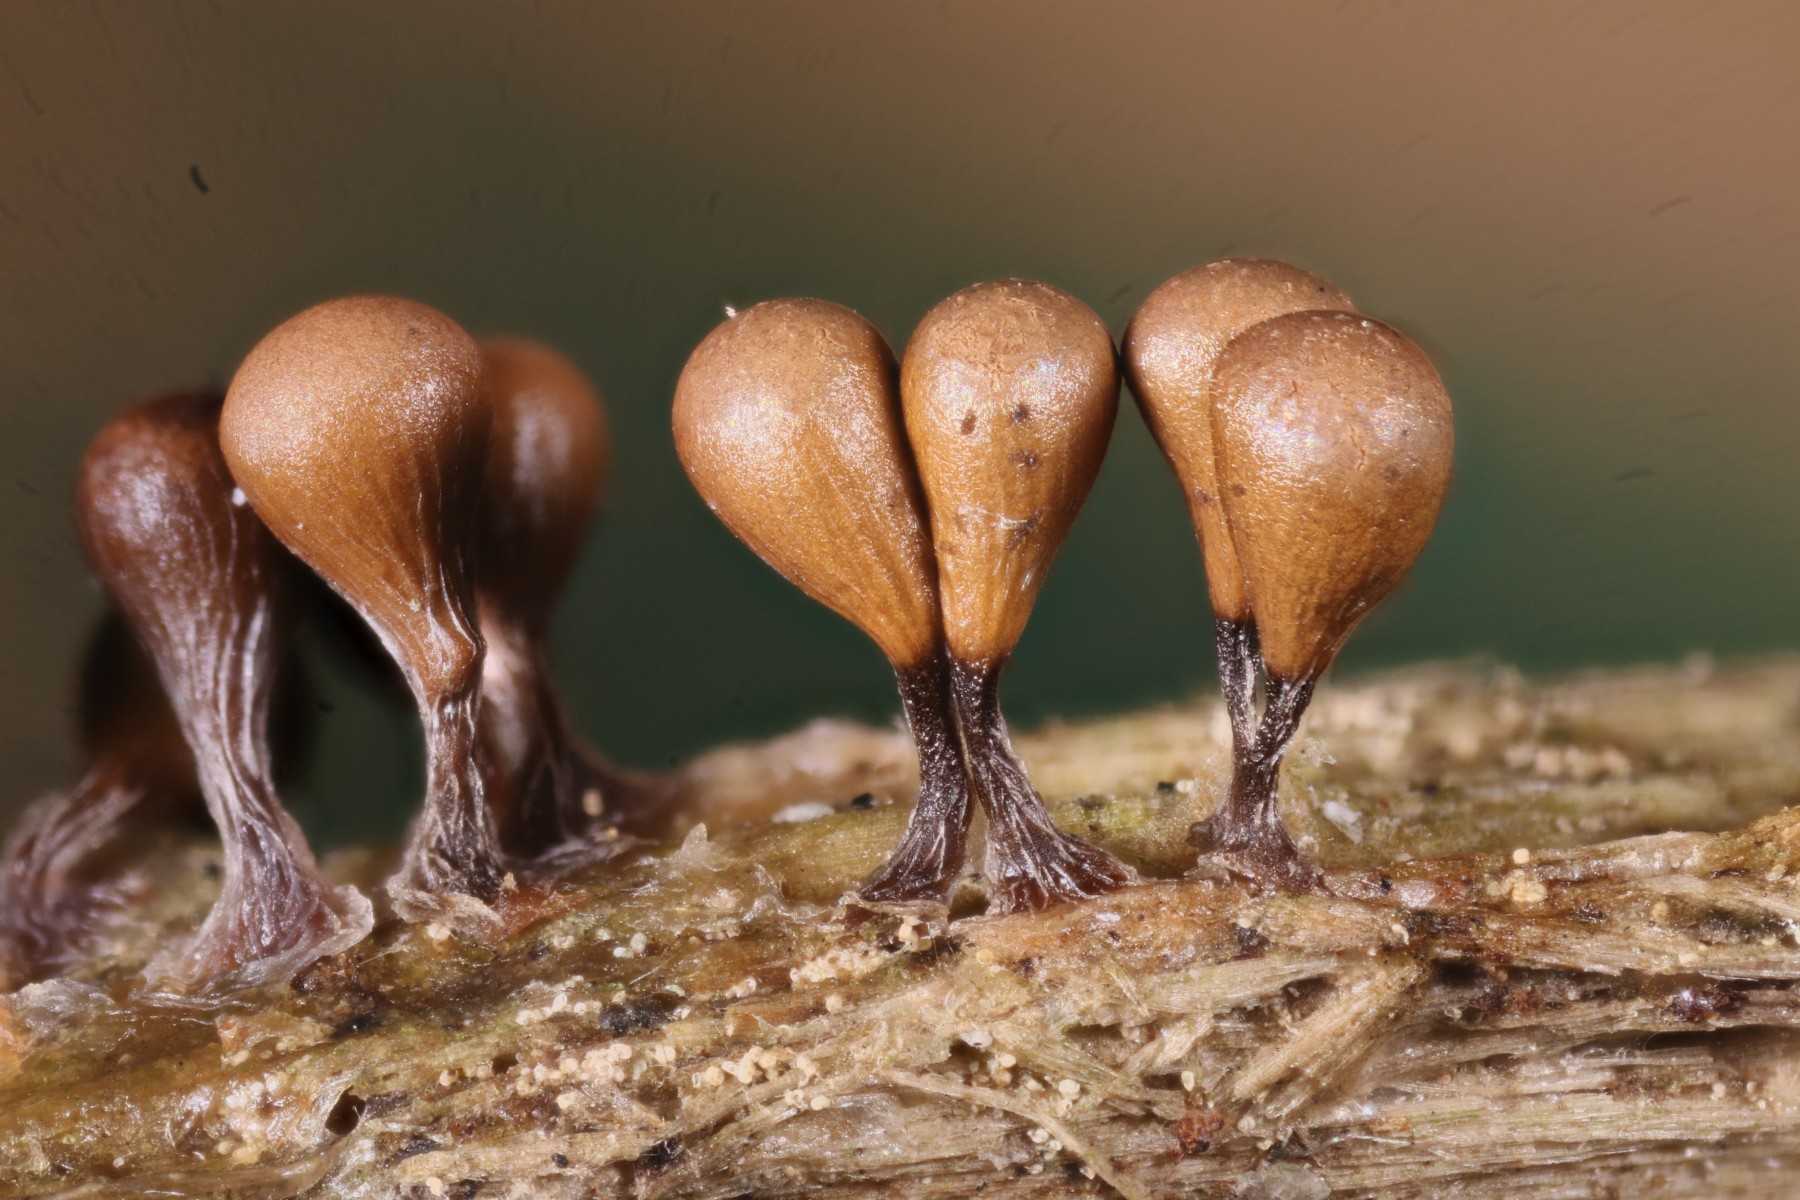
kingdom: Protozoa
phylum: Mycetozoa
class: Myxomycetes
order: Trichiales
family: Arcyriaceae
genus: Hemitrichia
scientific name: Hemitrichia decipiens
